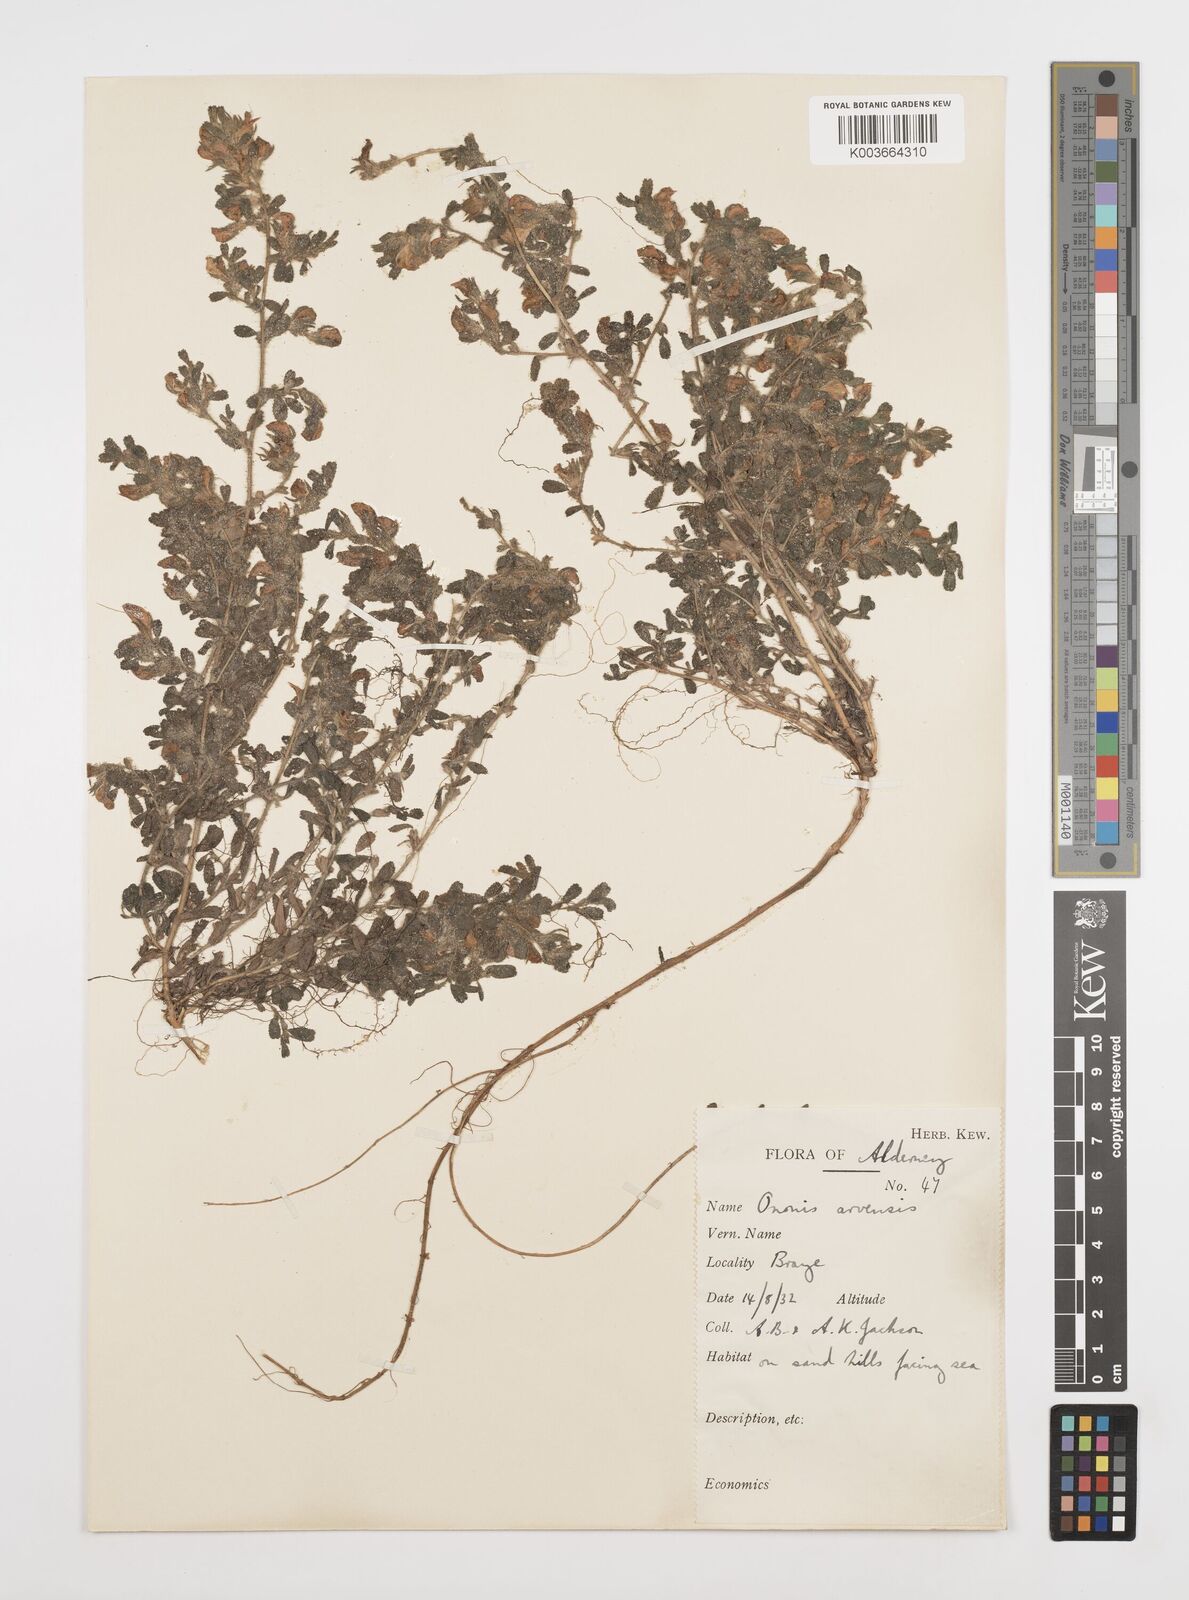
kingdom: Plantae
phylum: Tracheophyta
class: Magnoliopsida
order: Fabales
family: Fabaceae
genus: Ononis
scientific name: Ononis spinosa
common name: Spiny restharrow
